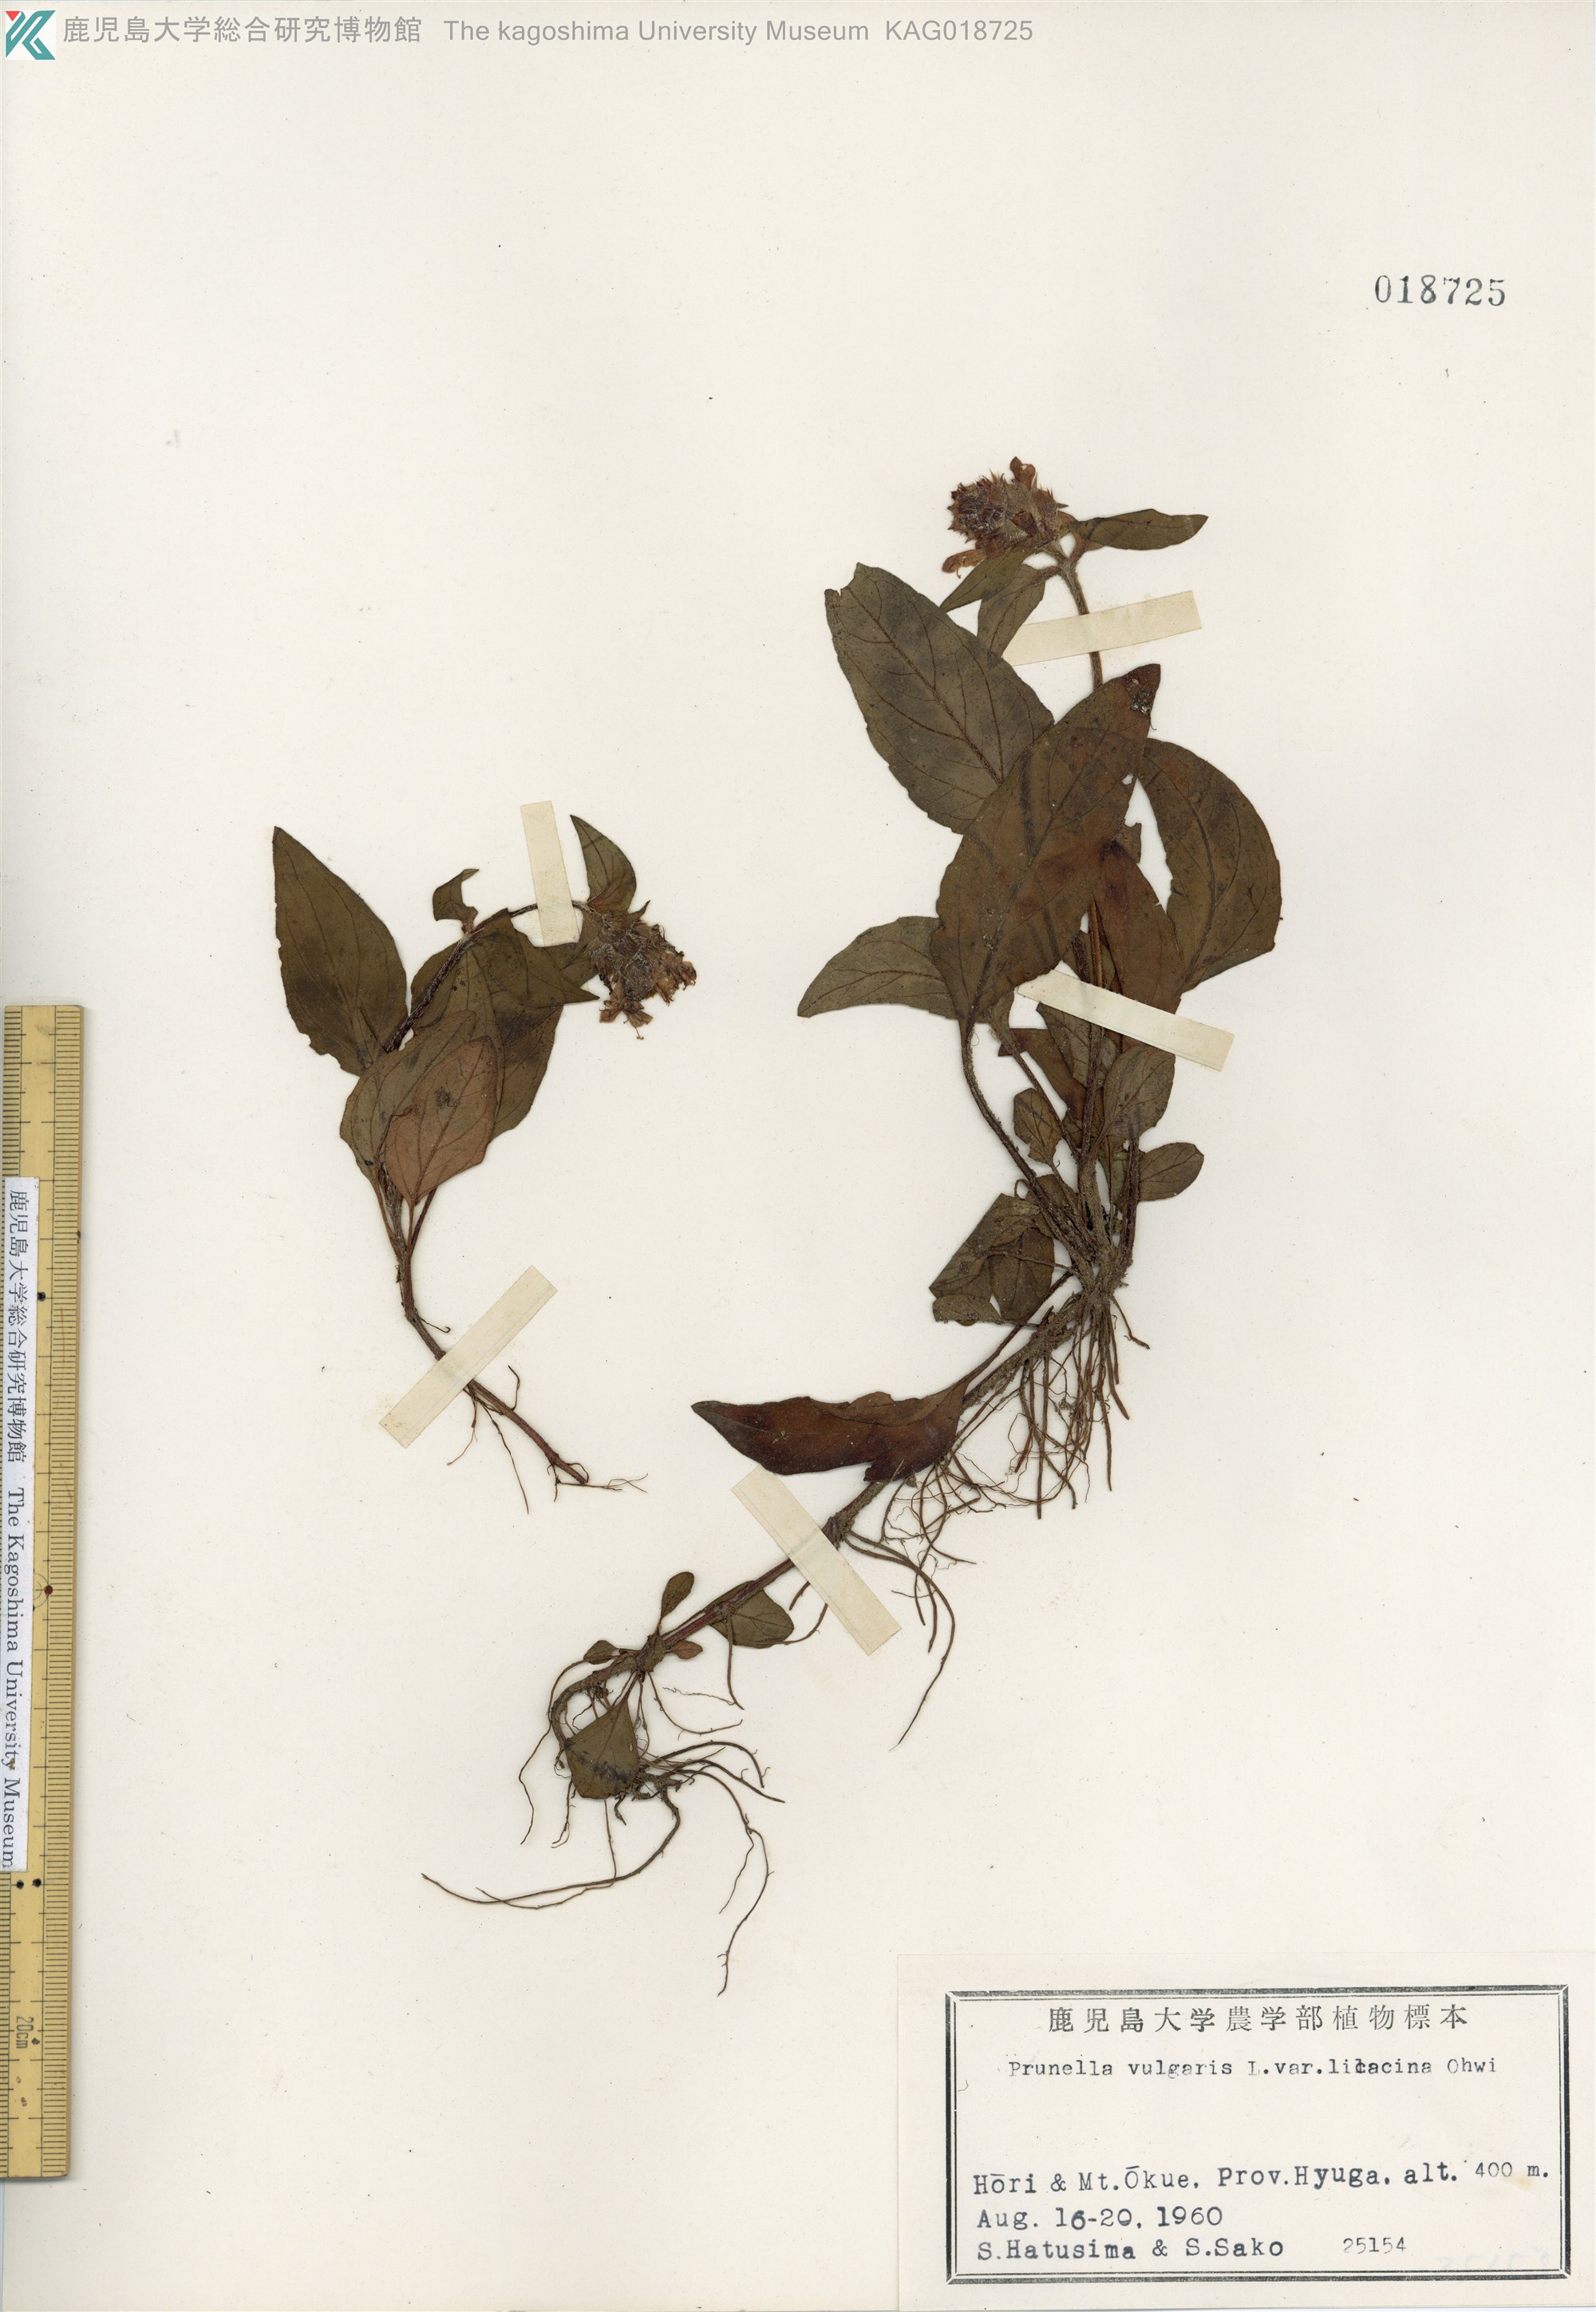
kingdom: Plantae
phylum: Tracheophyta
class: Magnoliopsida
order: Lamiales
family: Lamiaceae
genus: Prunella
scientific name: Prunella vulgaris
